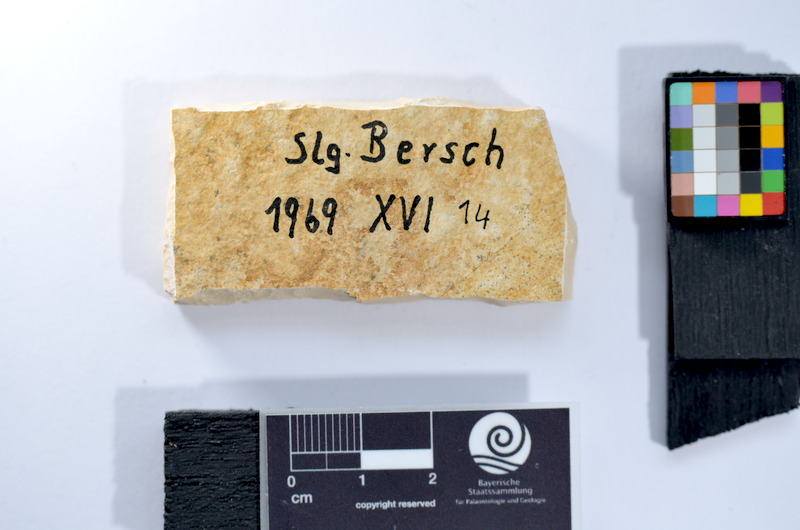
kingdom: Animalia
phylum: Chordata
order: Salmoniformes
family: Orthogonikleithridae
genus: Leptolepides
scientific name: Leptolepides sprattiformis
